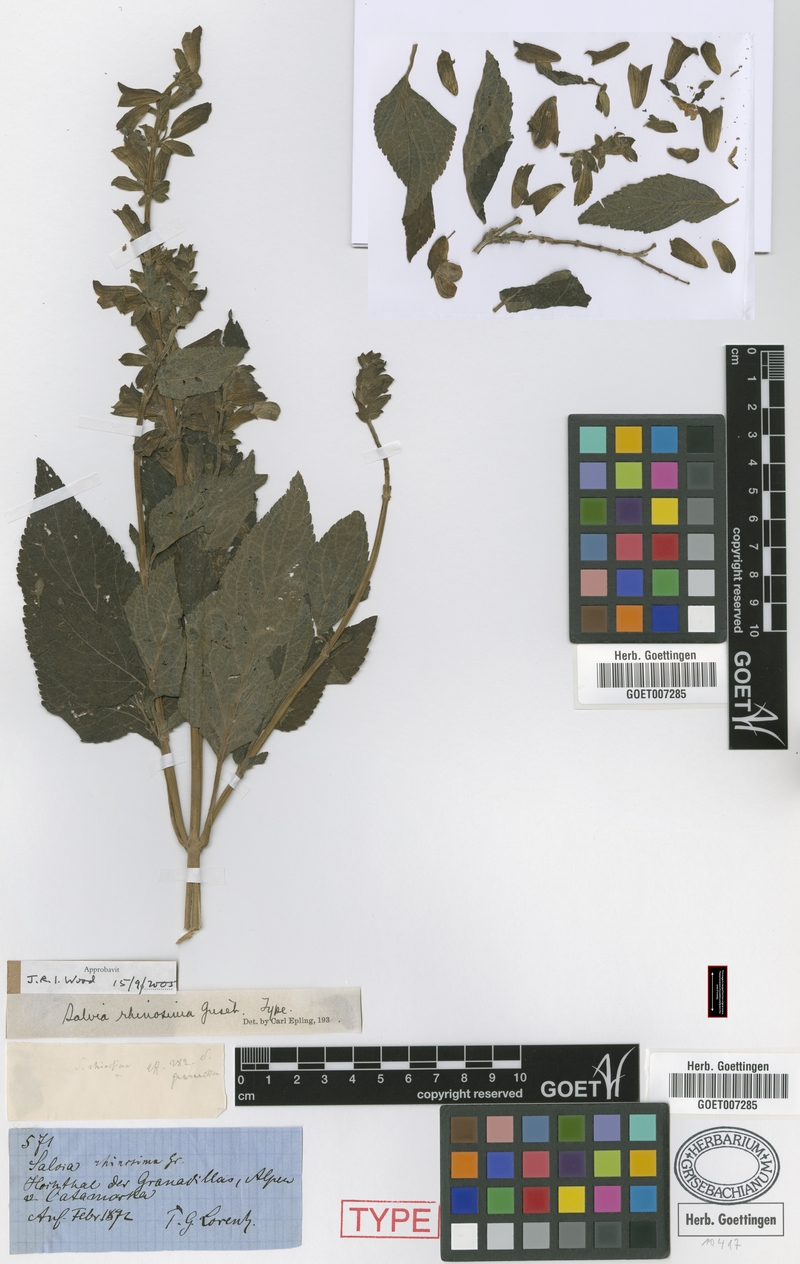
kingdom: Plantae
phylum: Tracheophyta
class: Magnoliopsida
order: Lamiales
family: Lamiaceae
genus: Salvia
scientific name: Salvia rhinosima
